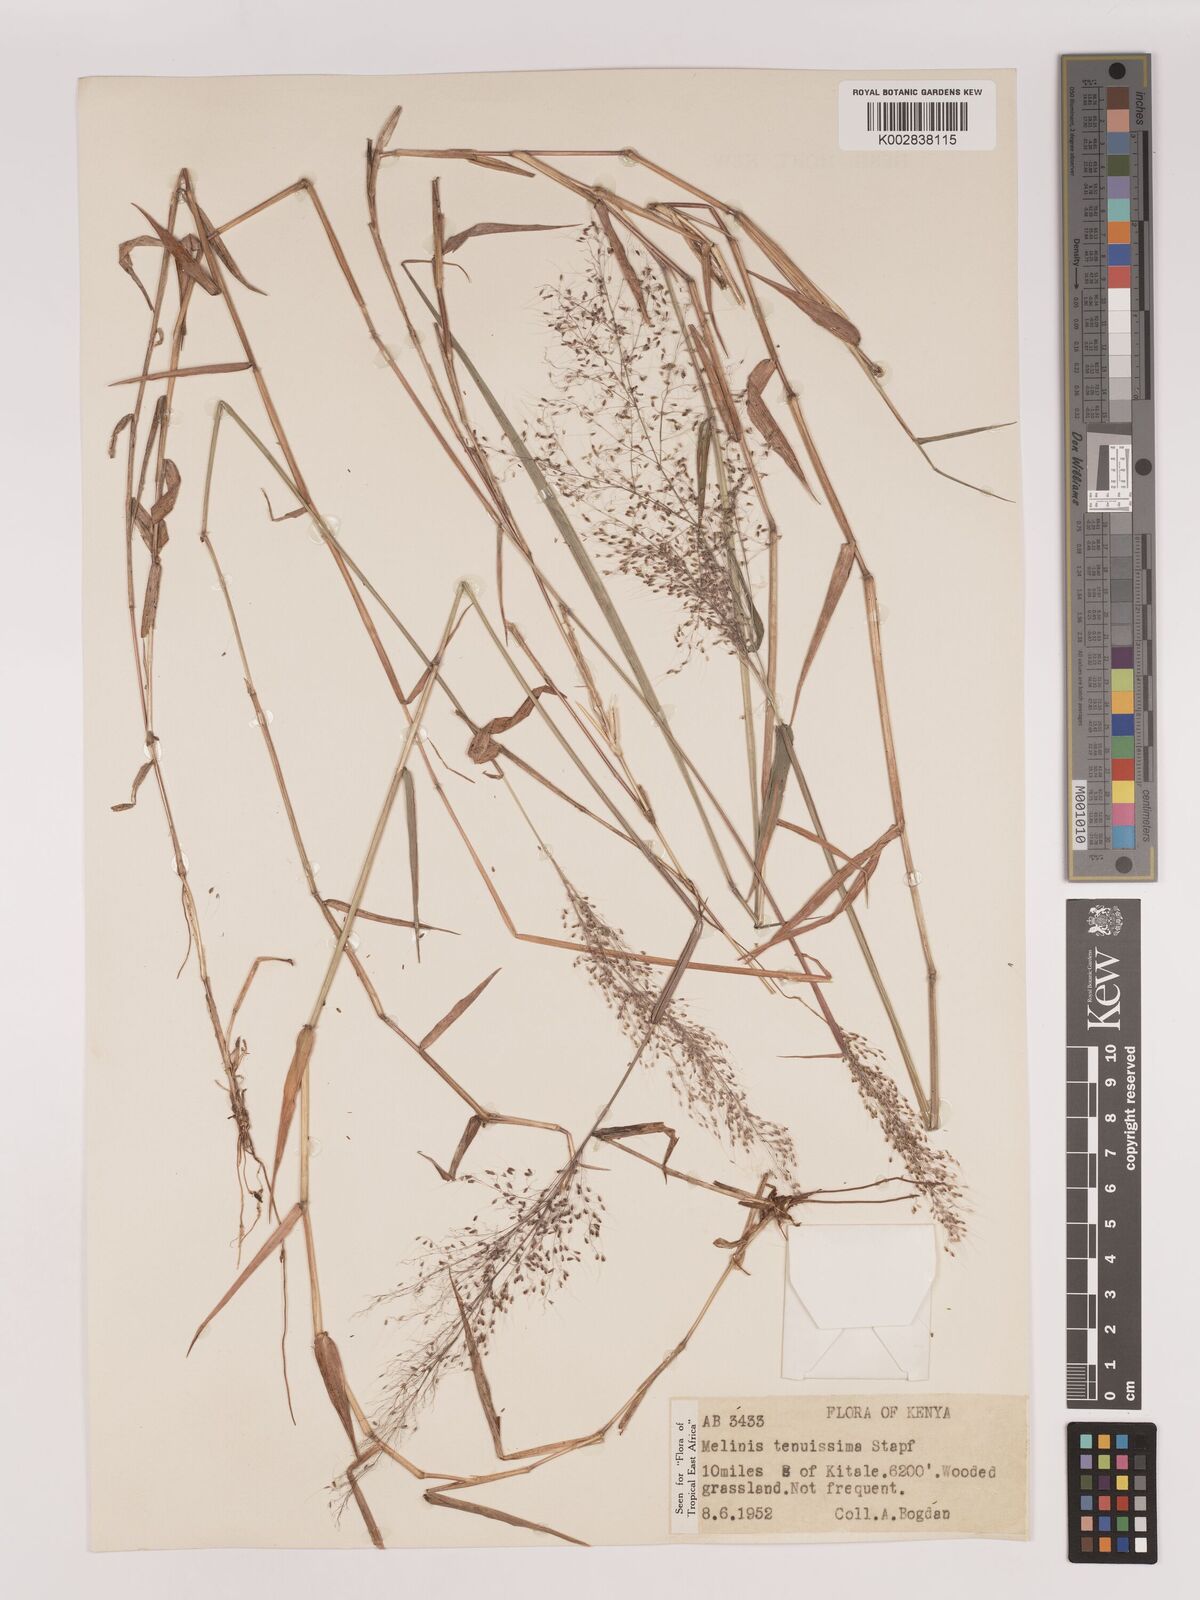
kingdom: Plantae
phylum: Tracheophyta
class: Liliopsida
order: Poales
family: Poaceae
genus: Melinis
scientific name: Melinis tenuissima
